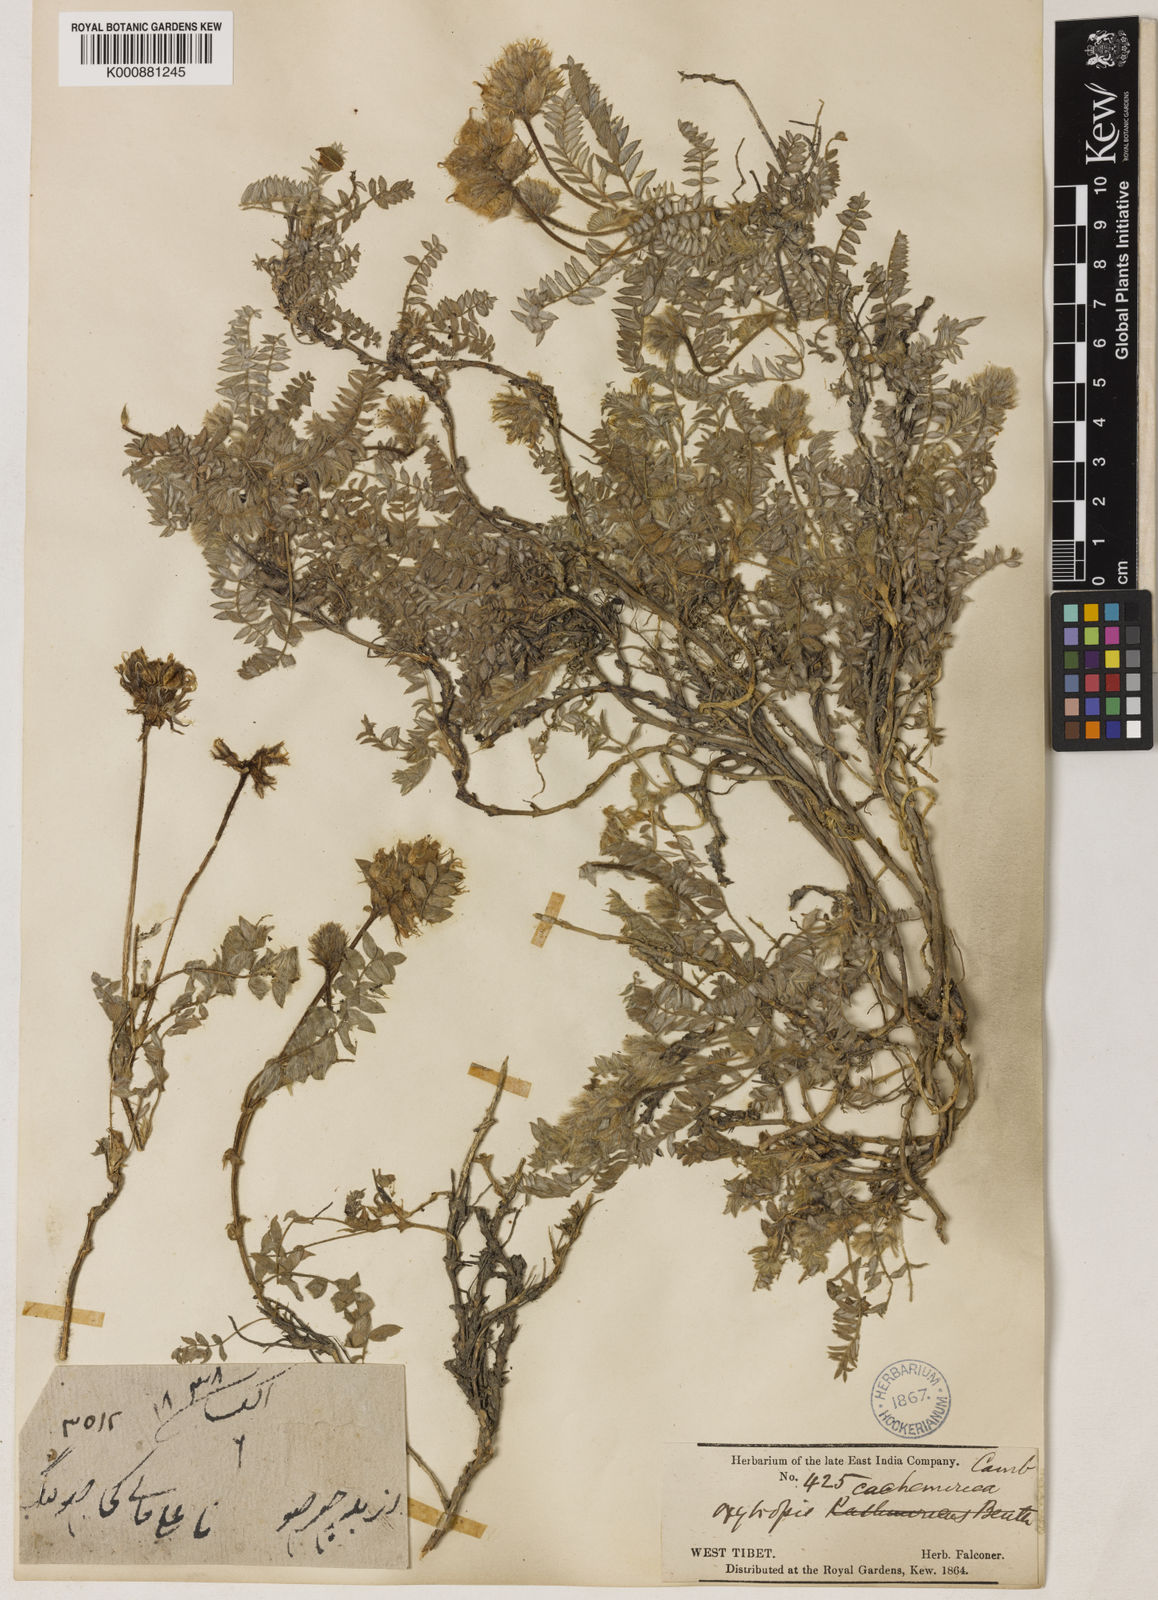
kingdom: Plantae
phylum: Tracheophyta
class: Magnoliopsida
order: Fabales
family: Fabaceae
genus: Oxytropis
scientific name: Oxytropis cachemiriana
